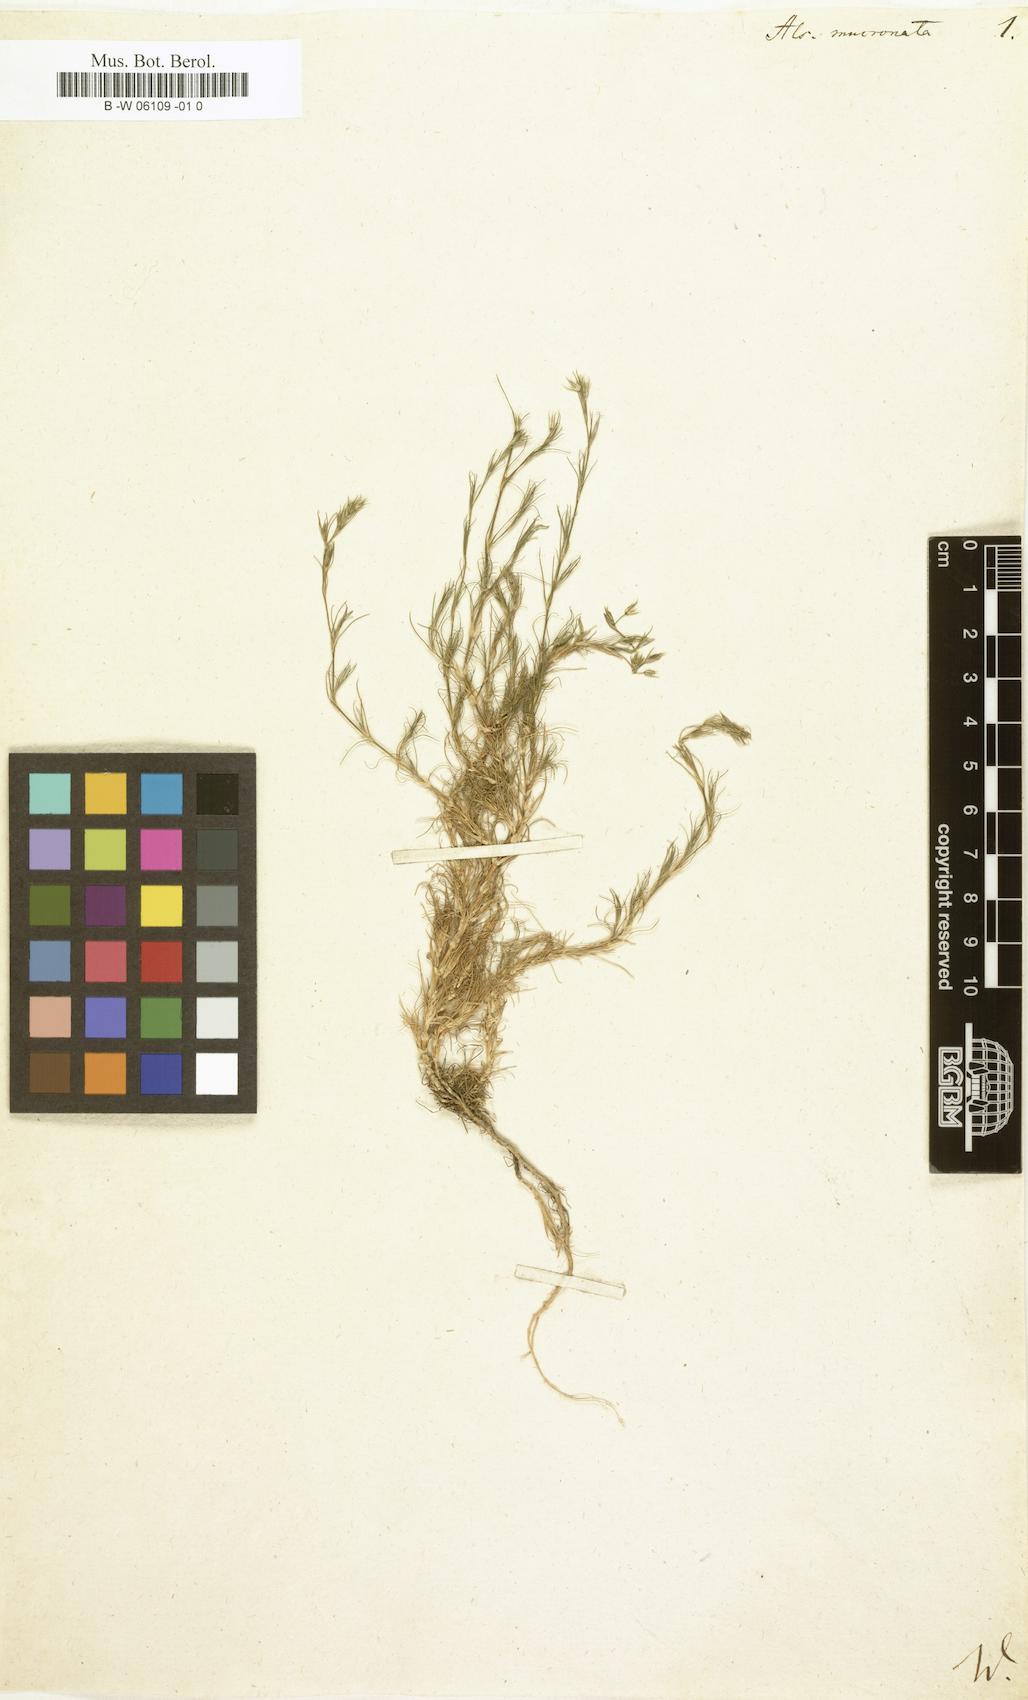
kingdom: Plantae
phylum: Tracheophyta
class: Magnoliopsida
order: Caryophyllales
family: Caryophyllaceae
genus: Minuartia
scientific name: Minuartia mucronata
